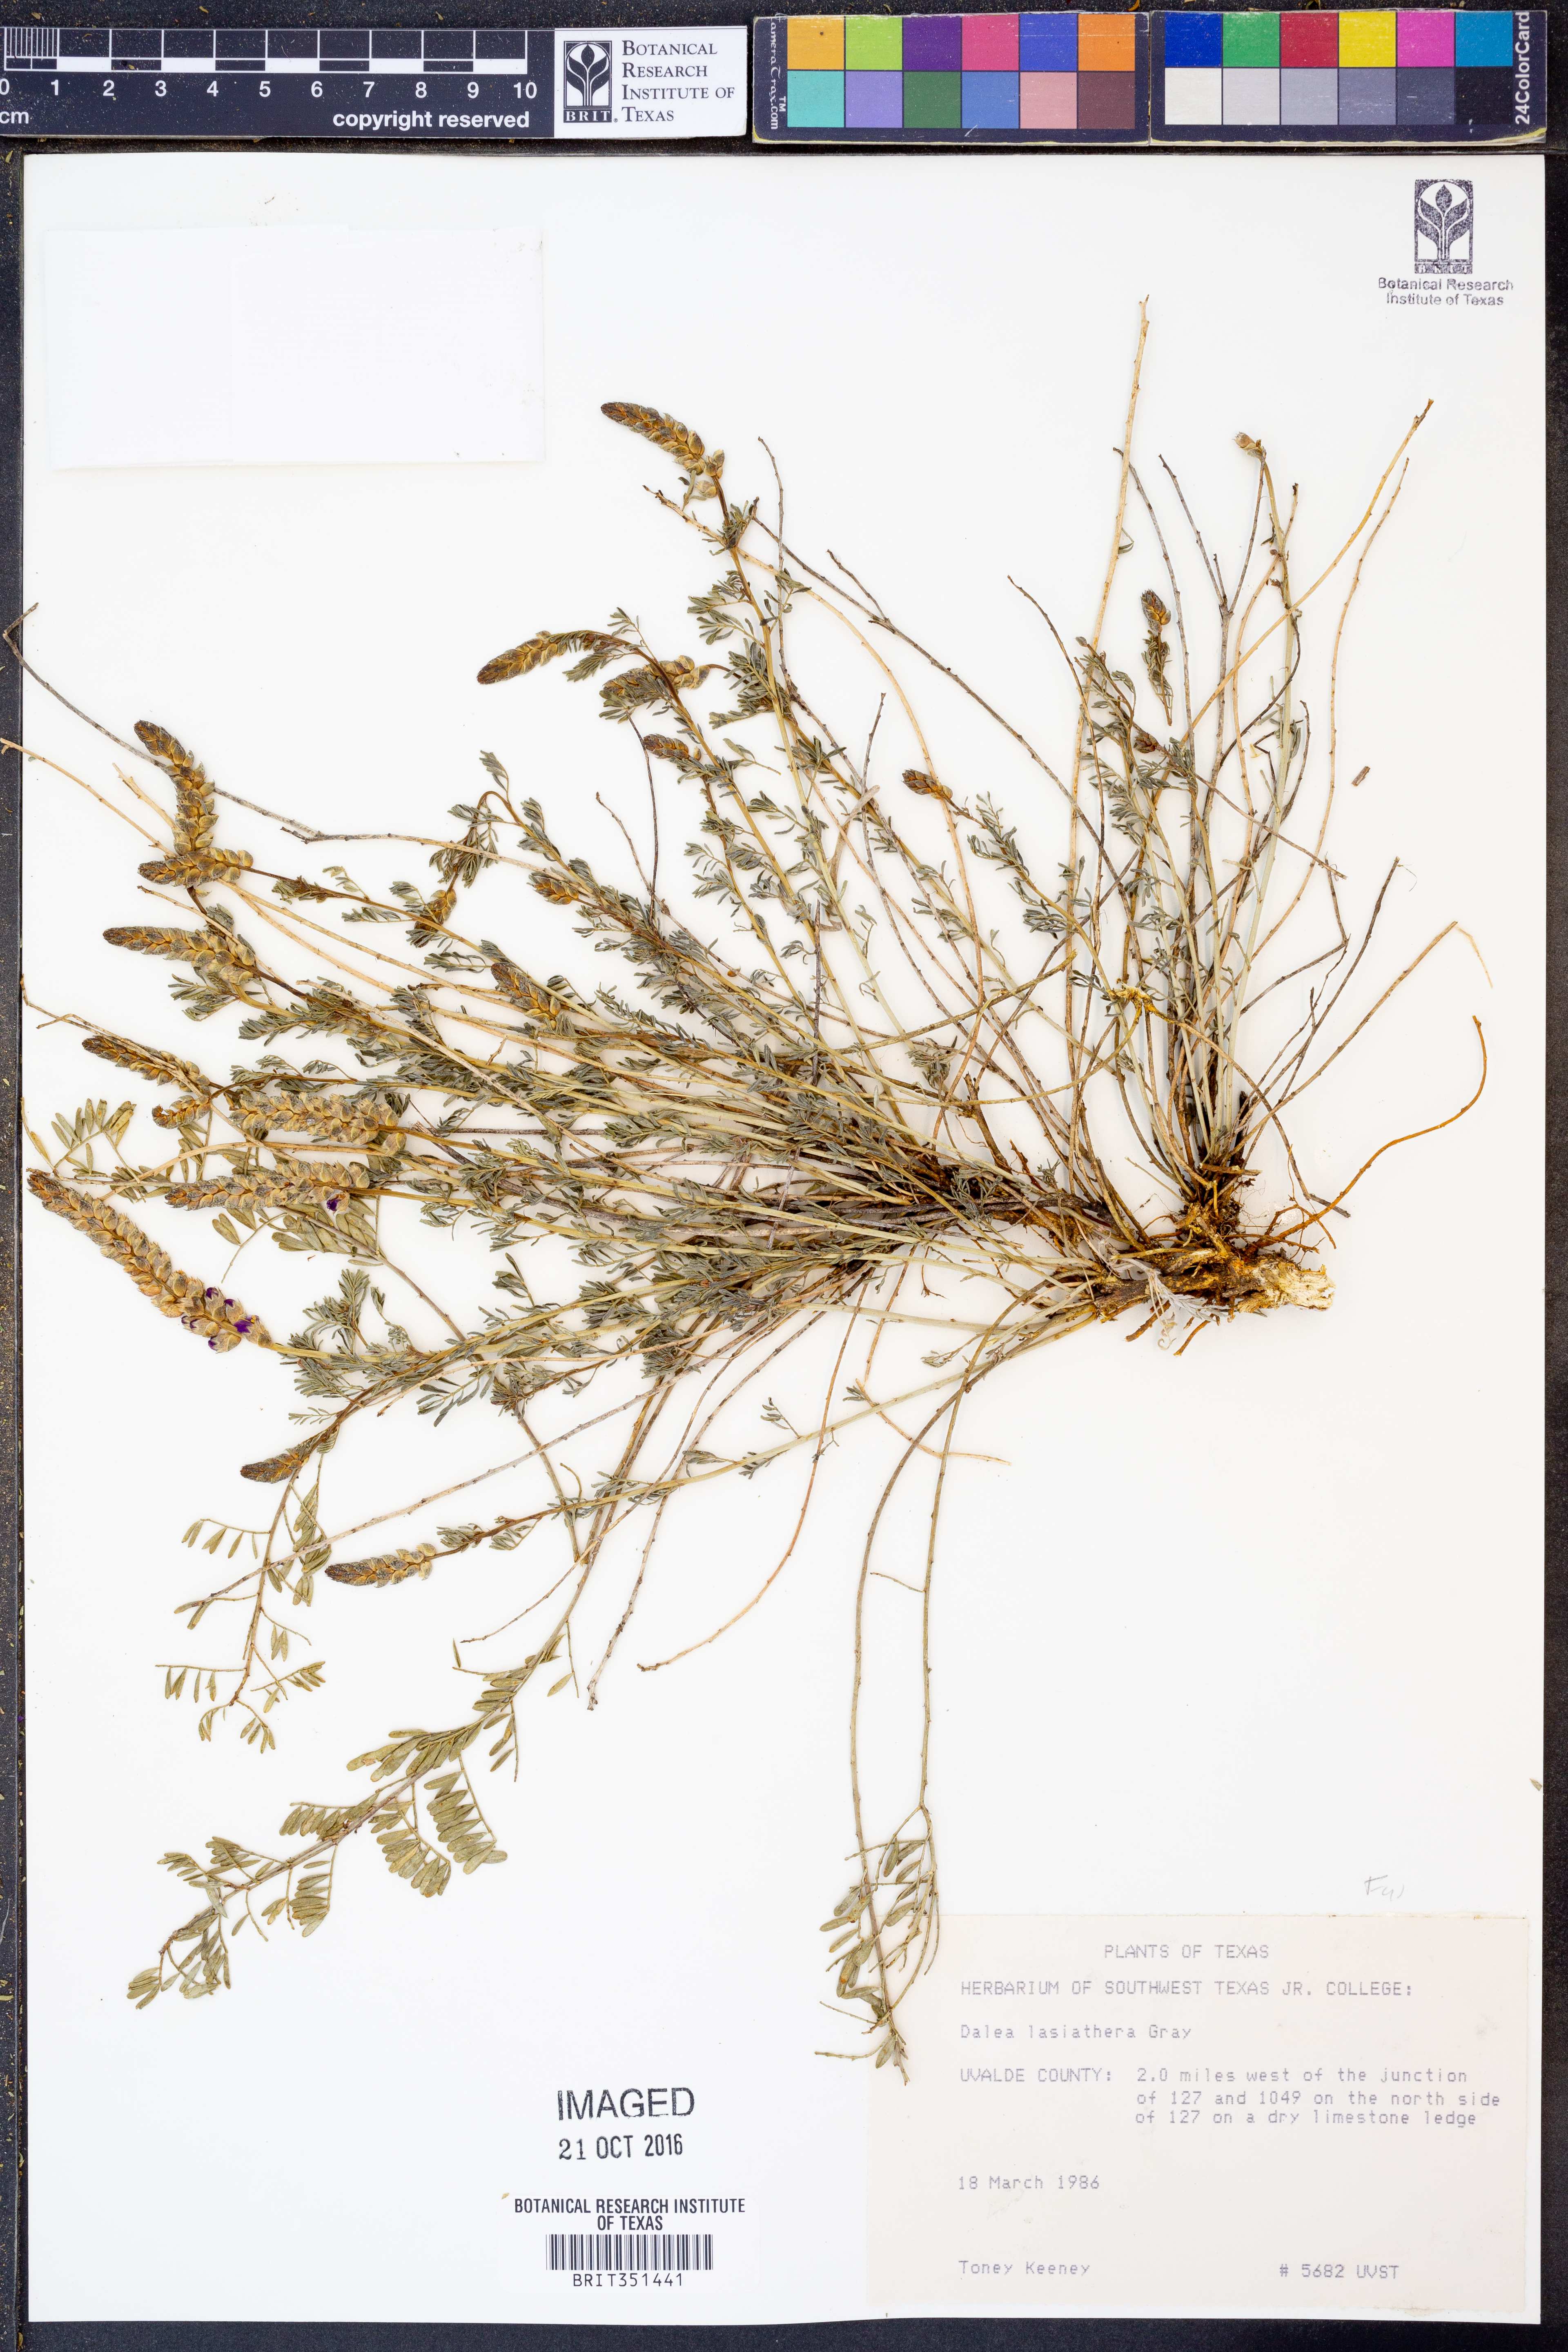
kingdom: Plantae
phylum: Tracheophyta
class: Magnoliopsida
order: Fabales
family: Fabaceae
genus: Dalea
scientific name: Dalea lasiathera
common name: Purple prairie-clover
